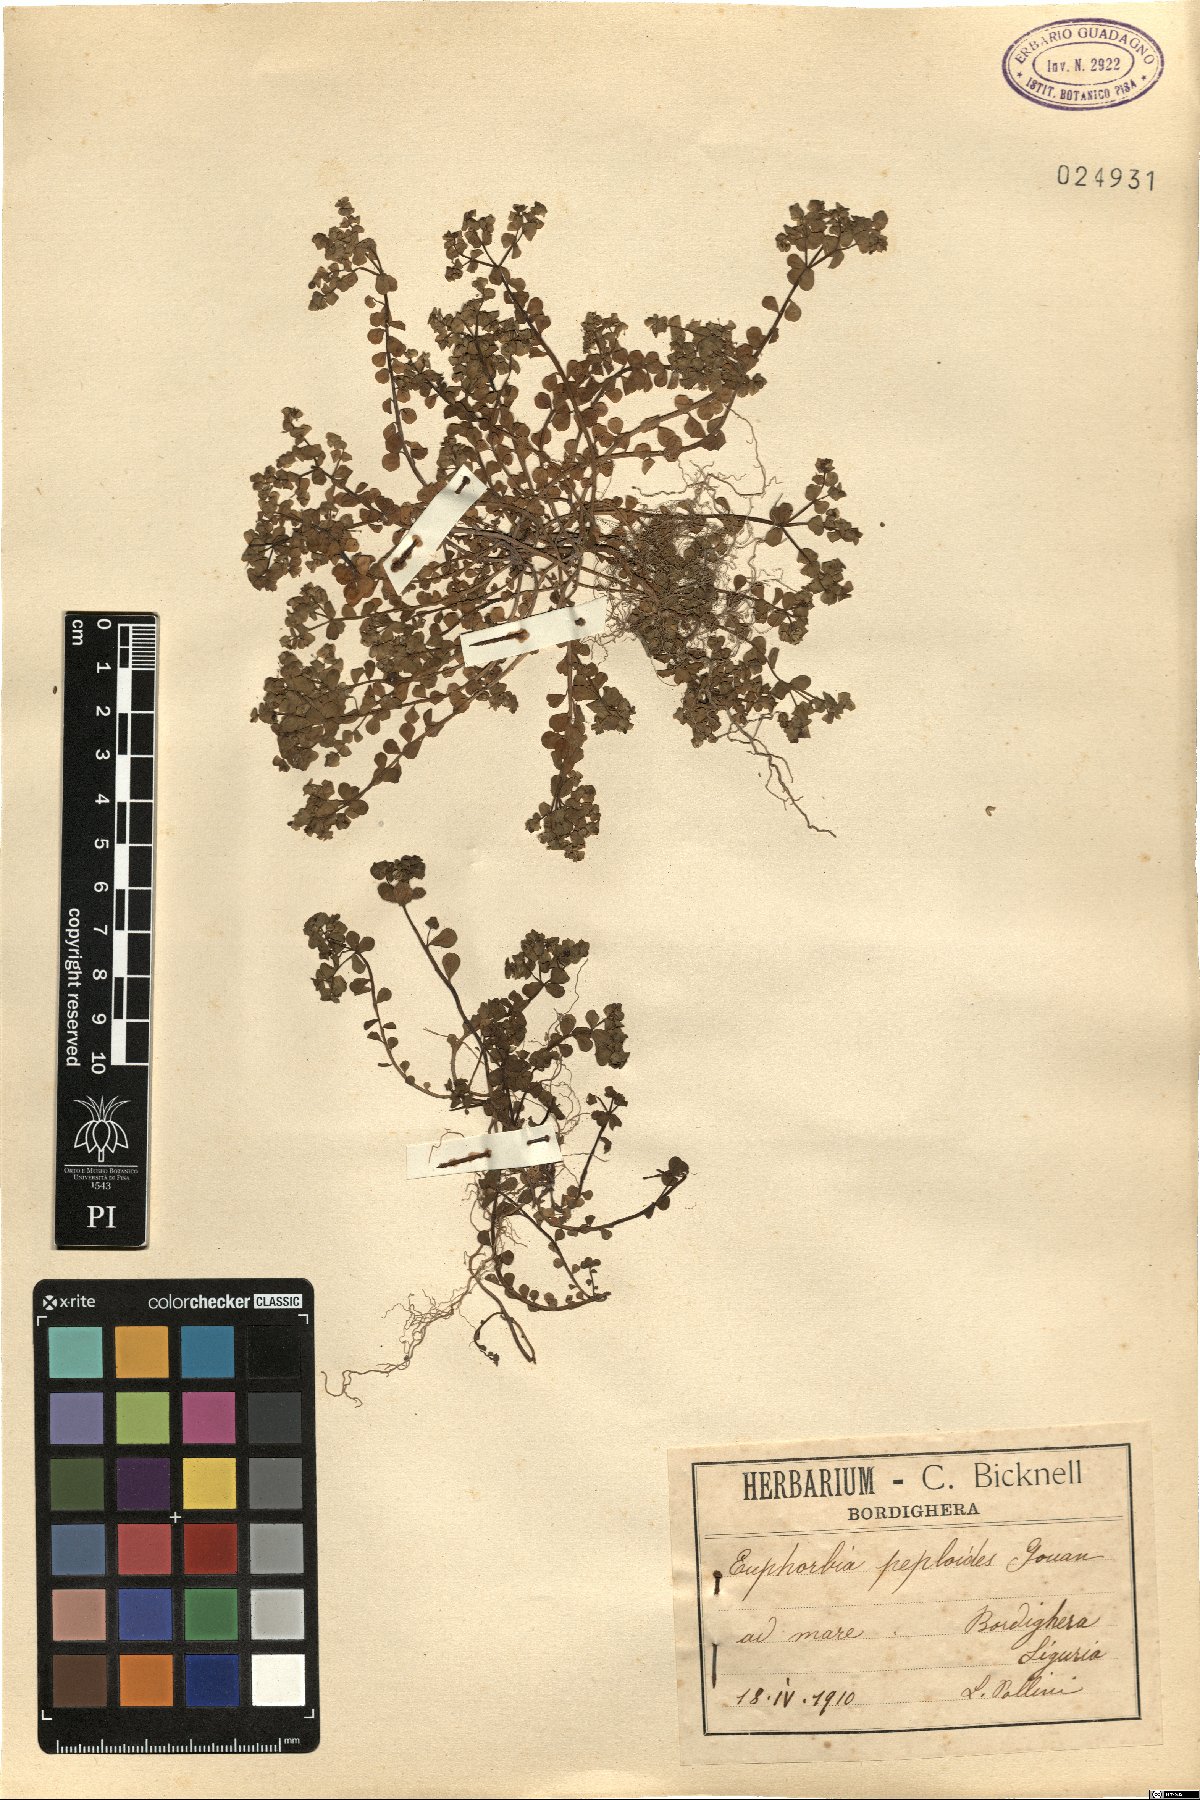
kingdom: Plantae
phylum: Tracheophyta
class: Magnoliopsida
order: Malpighiales
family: Euphorbiaceae
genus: Euphorbia
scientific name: Euphorbia peplus
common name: Petty spurge
